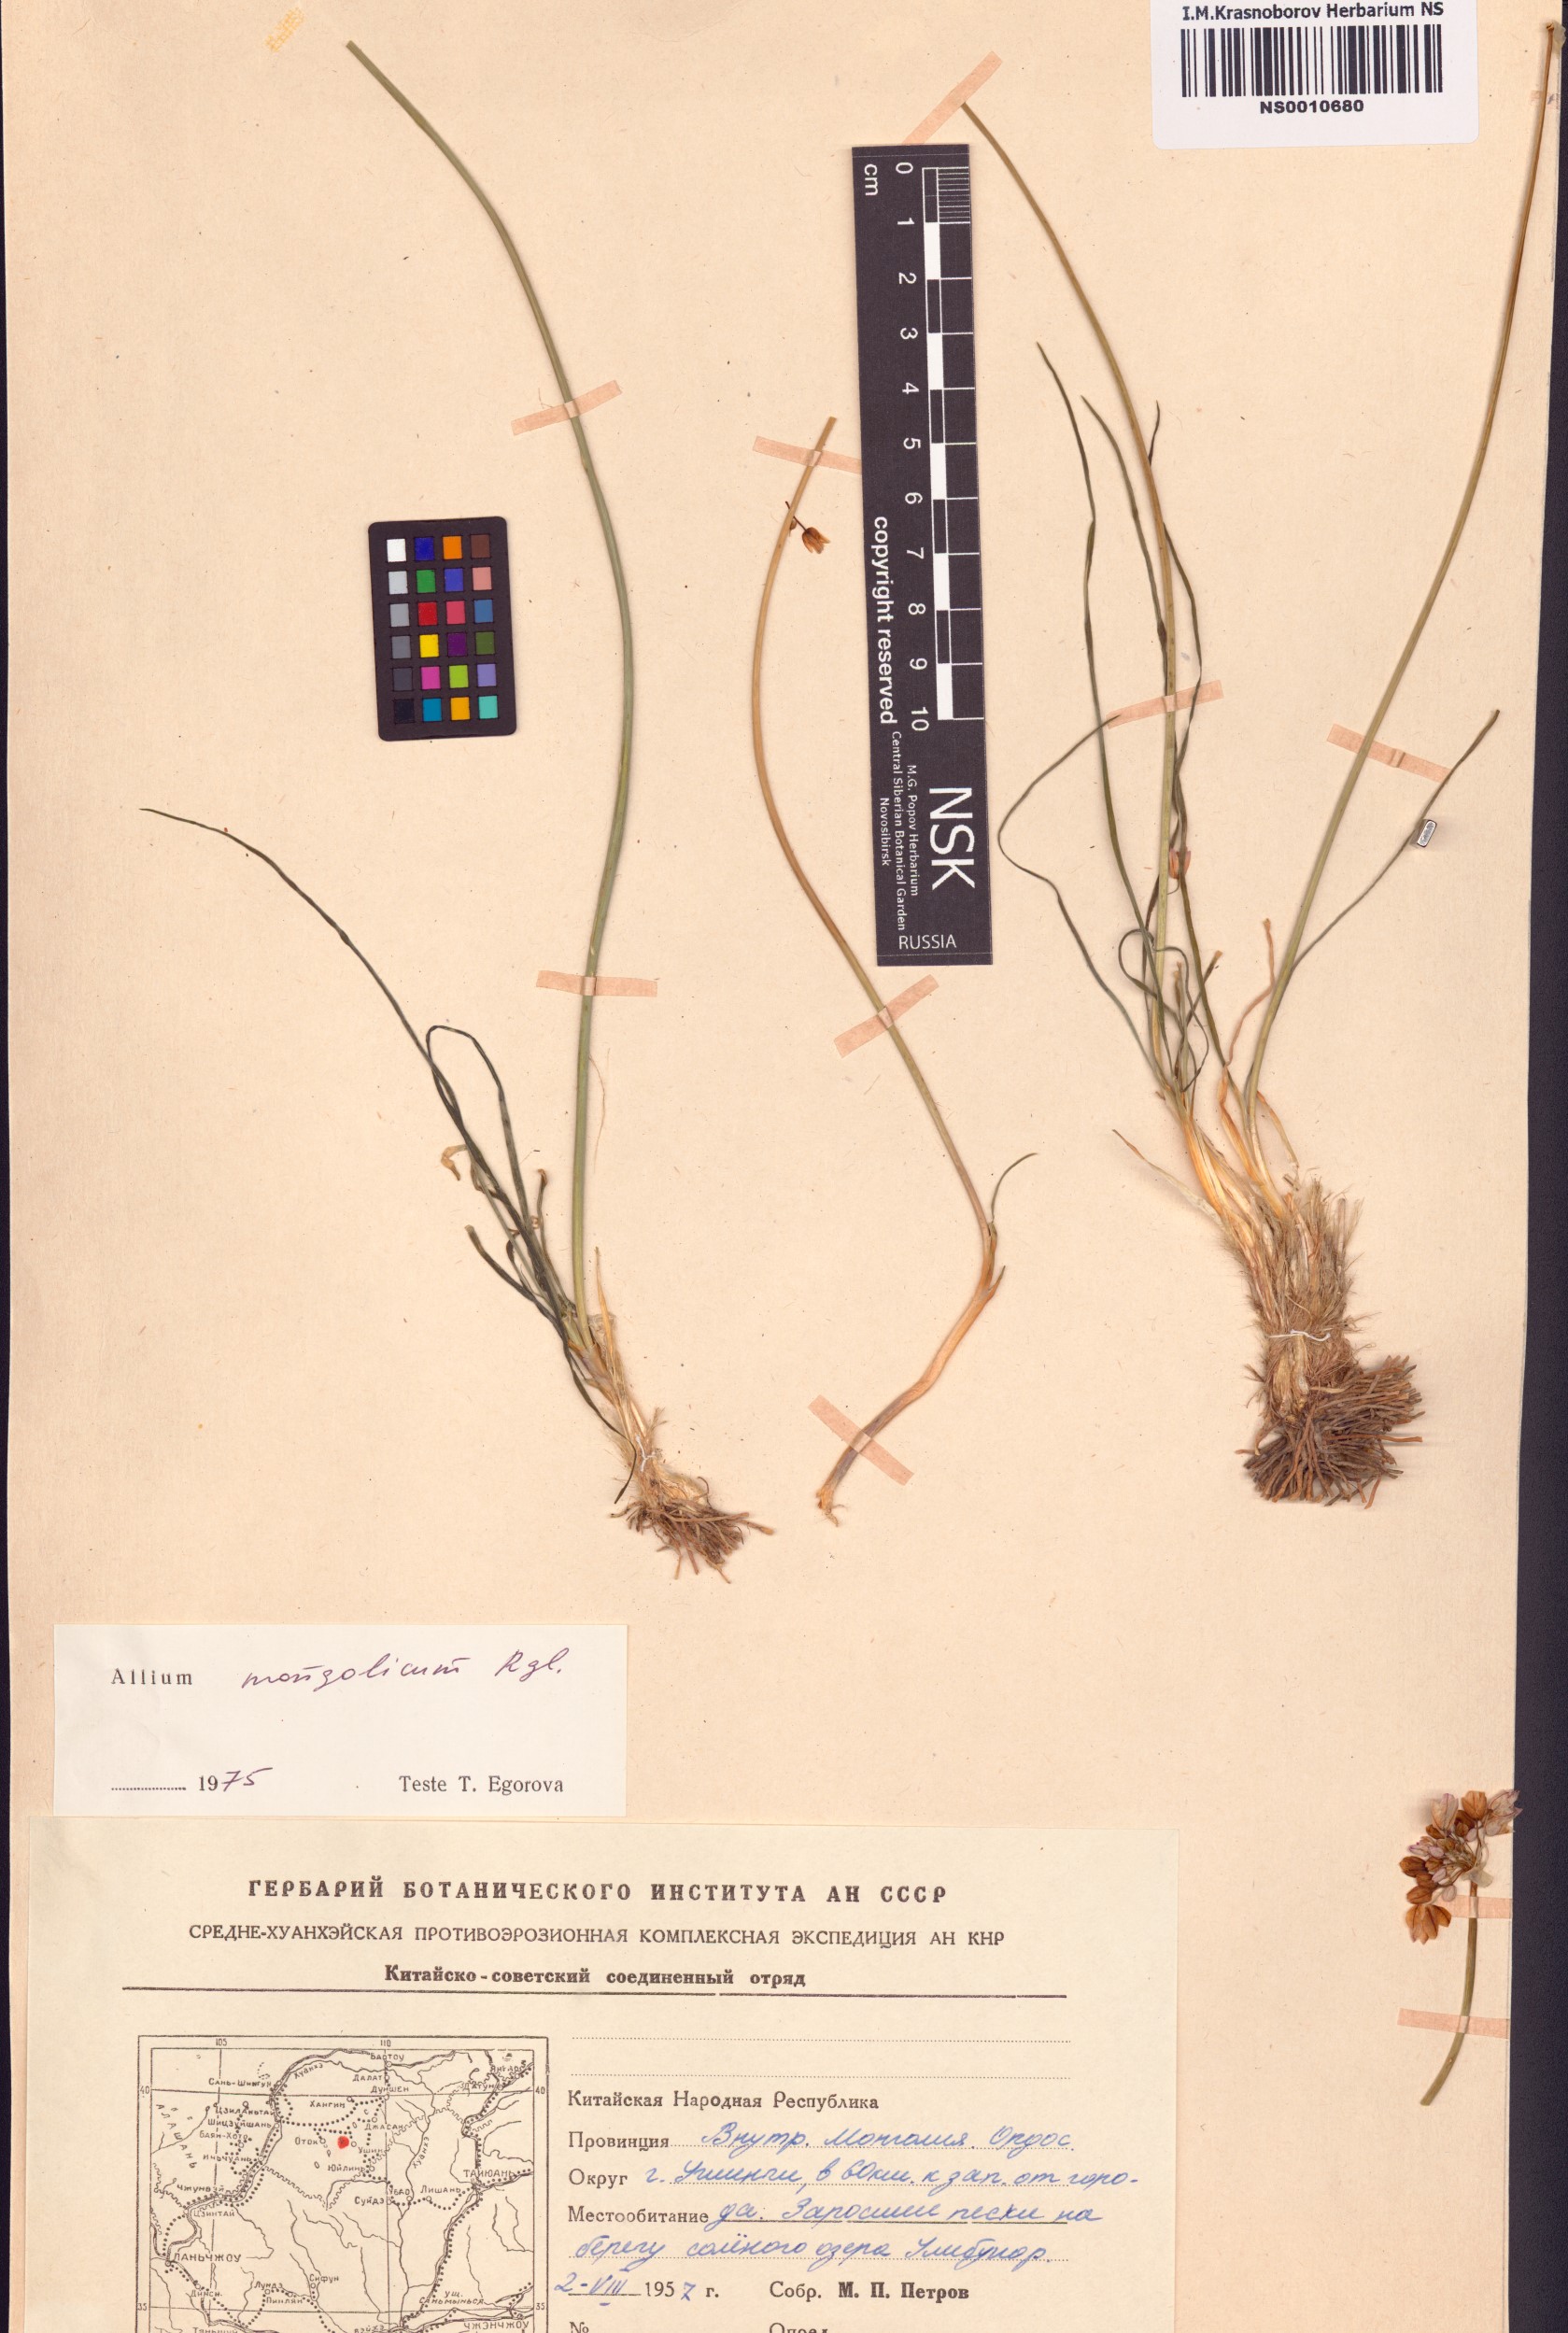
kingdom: Plantae
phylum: Tracheophyta
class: Liliopsida
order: Asparagales
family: Amaryllidaceae
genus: Allium
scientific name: Allium mongolicum
